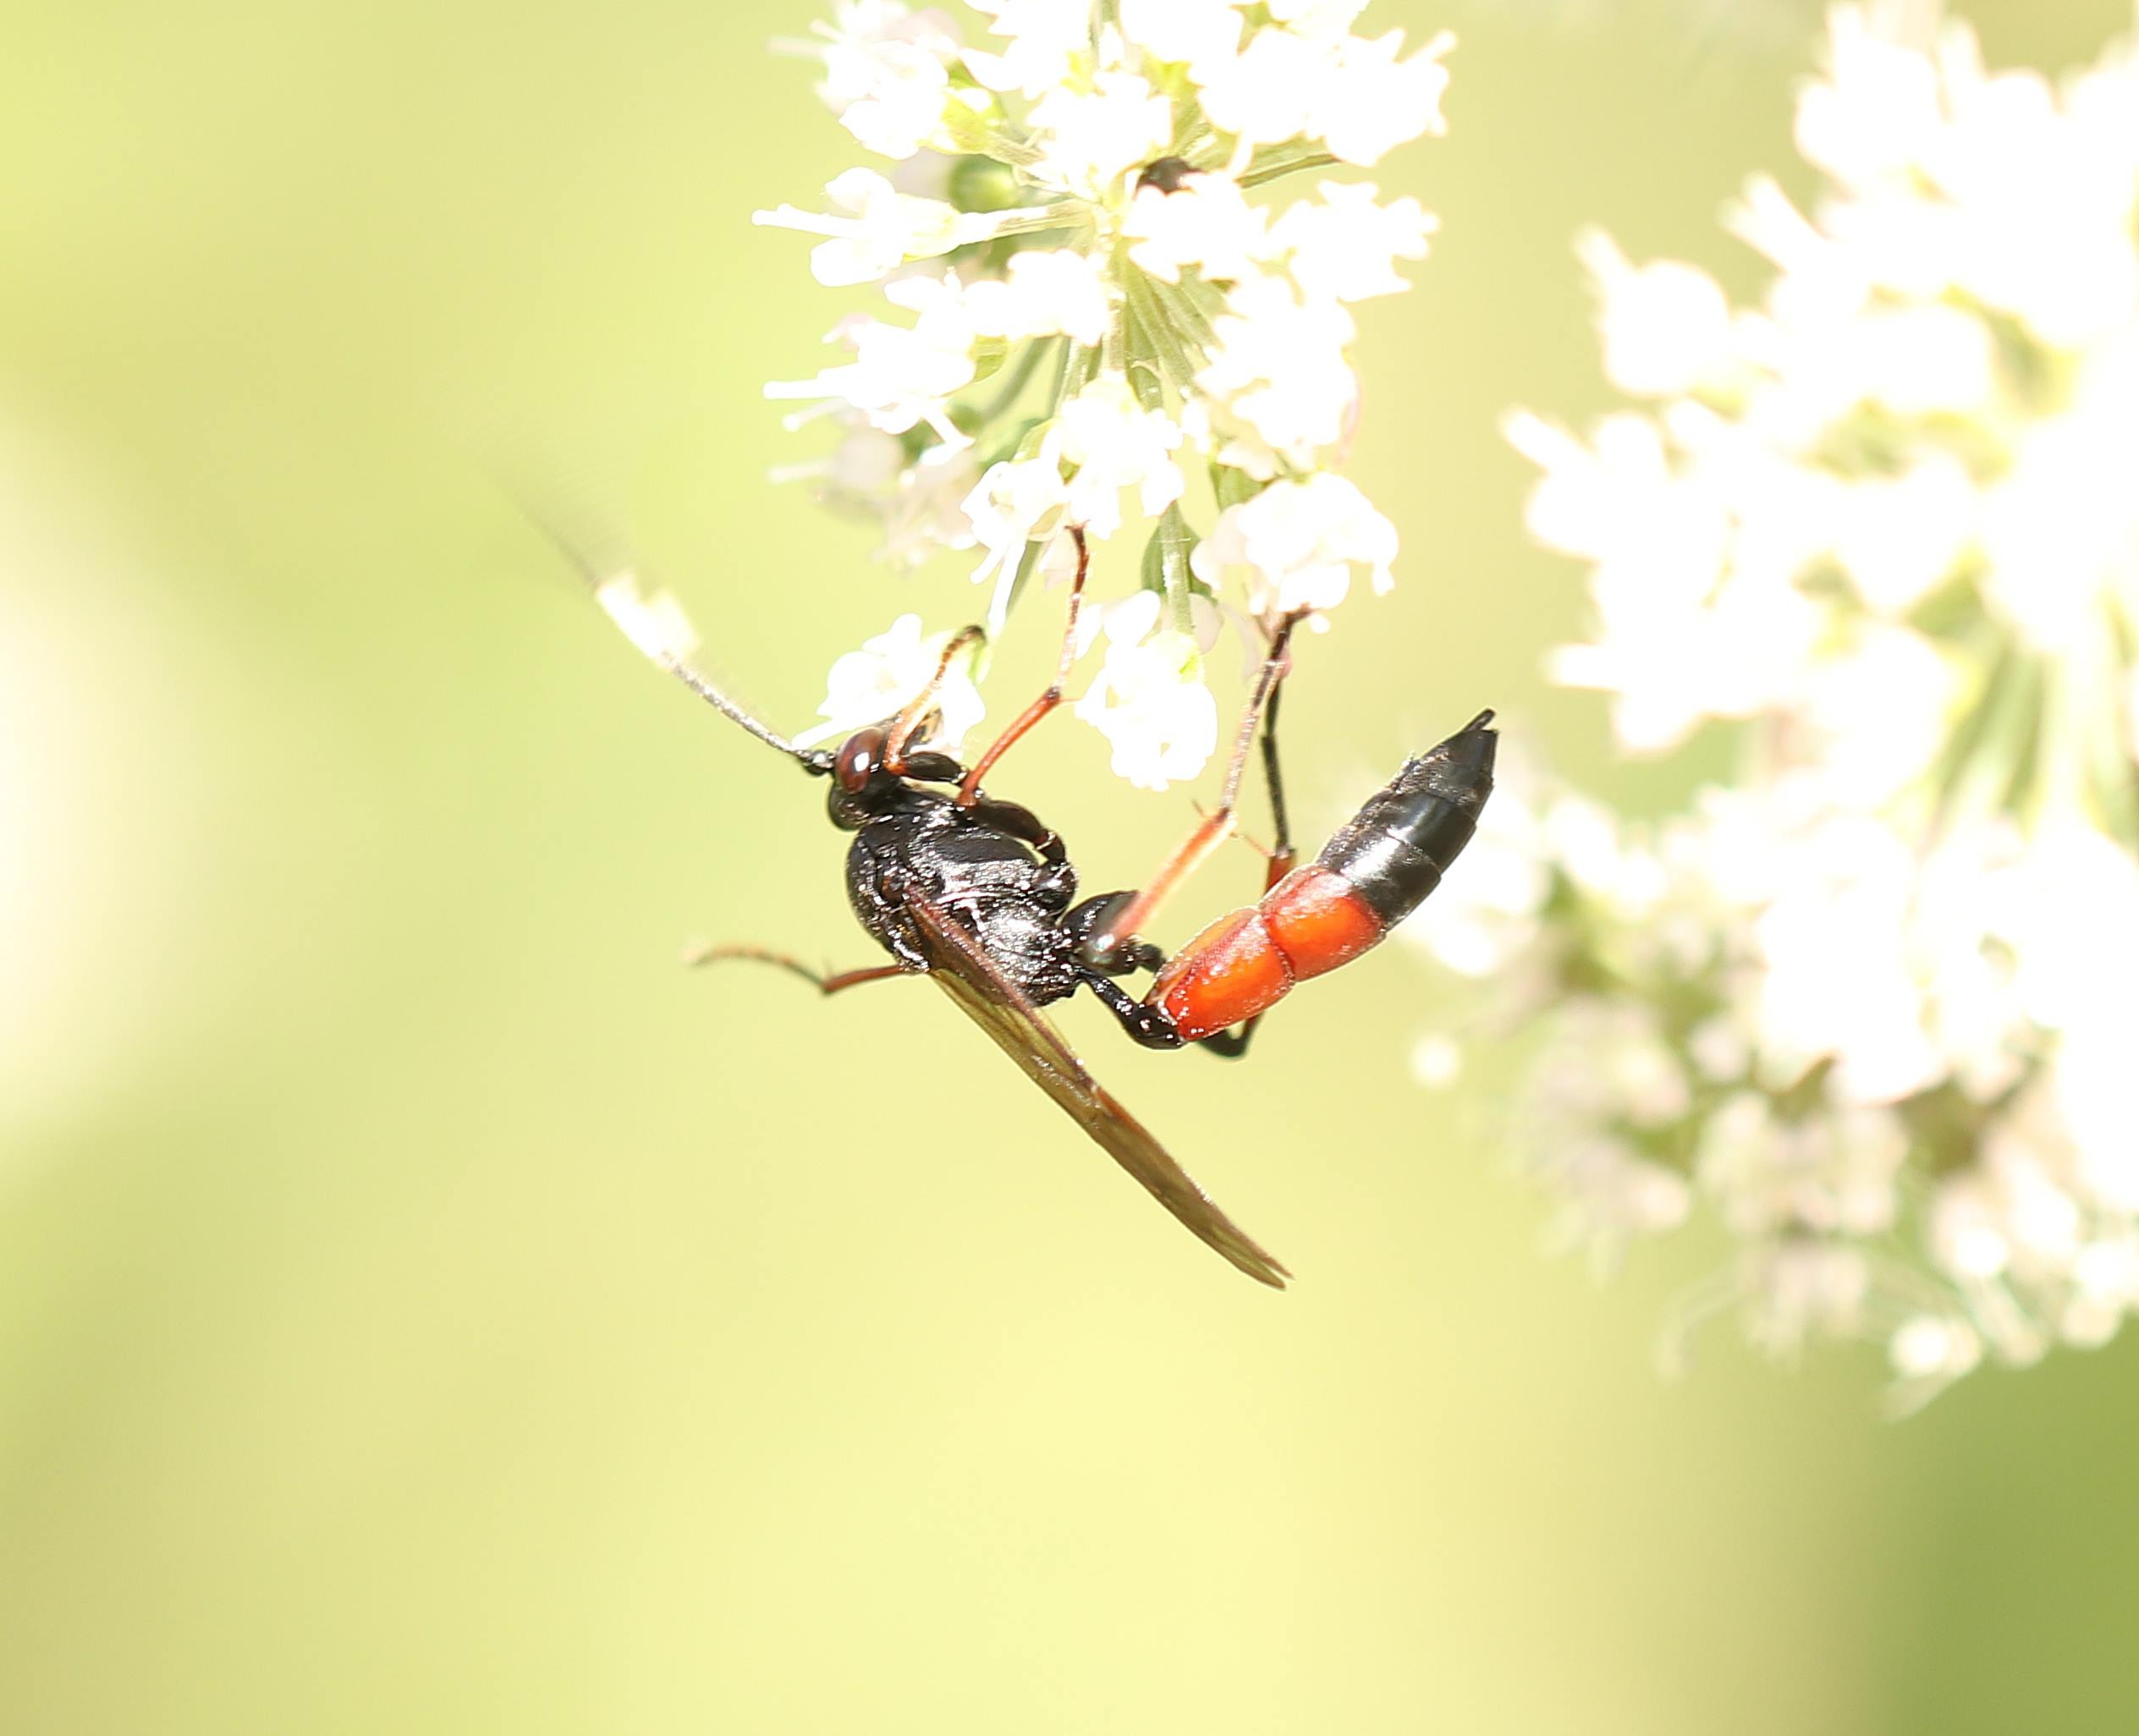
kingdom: Animalia
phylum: Arthropoda
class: Insecta
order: Hymenoptera
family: Ichneumonidae
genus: Stenichneumon
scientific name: Stenichneumon culpator
